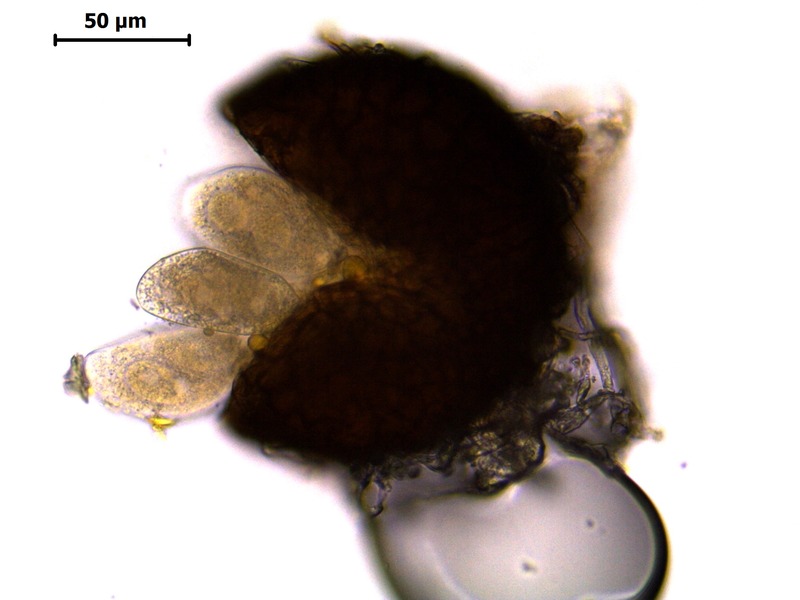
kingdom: Fungi
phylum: Ascomycota
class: Leotiomycetes
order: Helotiales
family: Erysiphaceae
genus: Golovinomyces
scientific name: Golovinomyces cichoracearum
